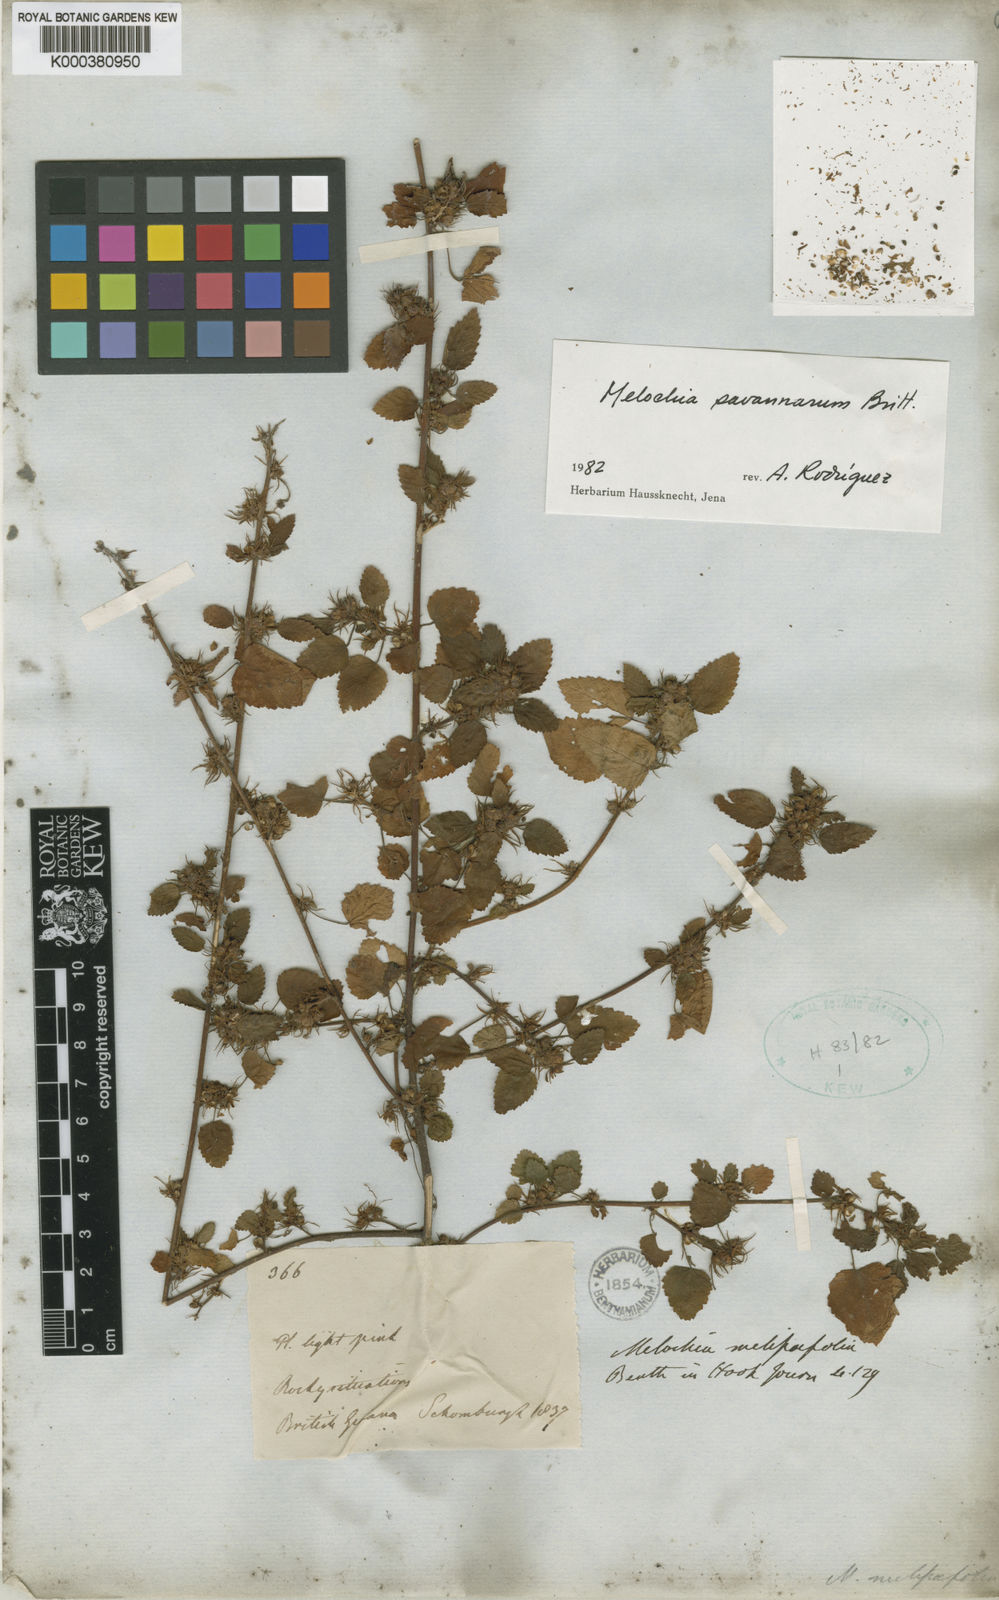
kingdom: Plantae
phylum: Tracheophyta
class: Magnoliopsida
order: Malvales
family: Malvaceae
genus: Melochia
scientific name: Melochia melissifolia
